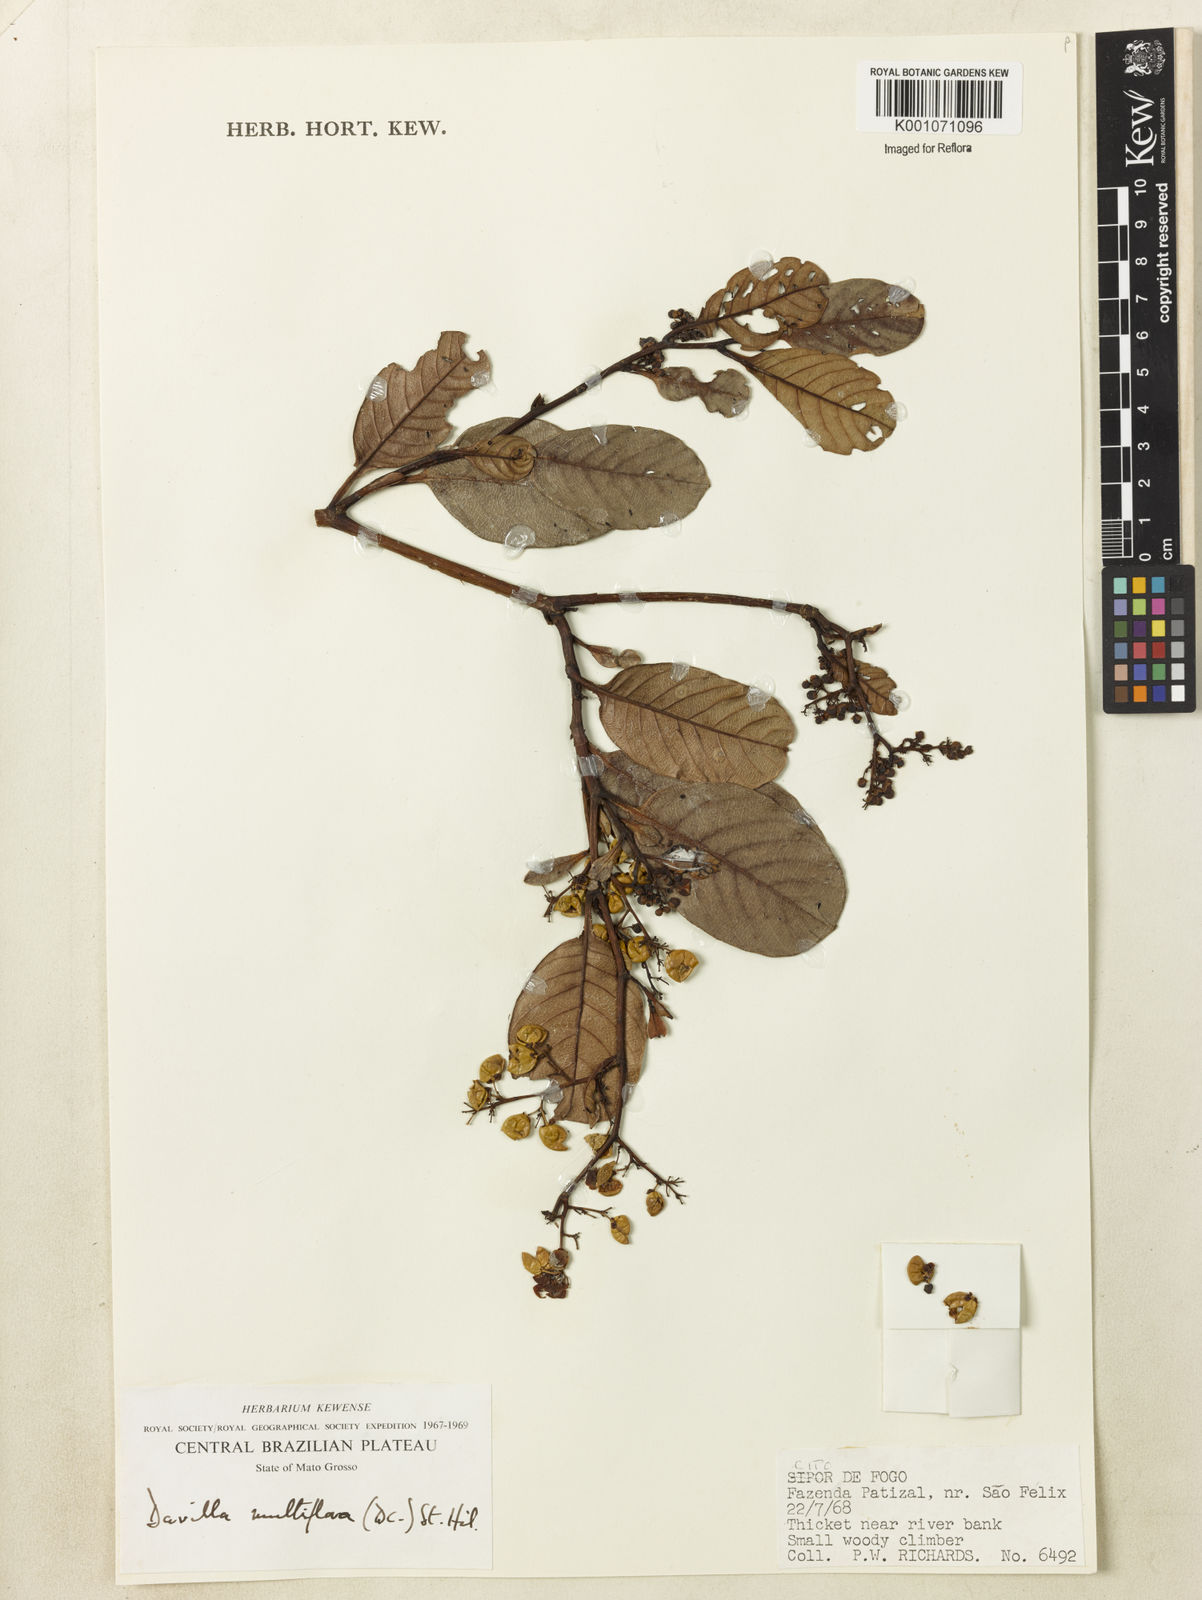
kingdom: Plantae
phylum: Tracheophyta
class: Magnoliopsida
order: Dilleniales
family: Dilleniaceae
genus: Davilla
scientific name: Davilla nitida
